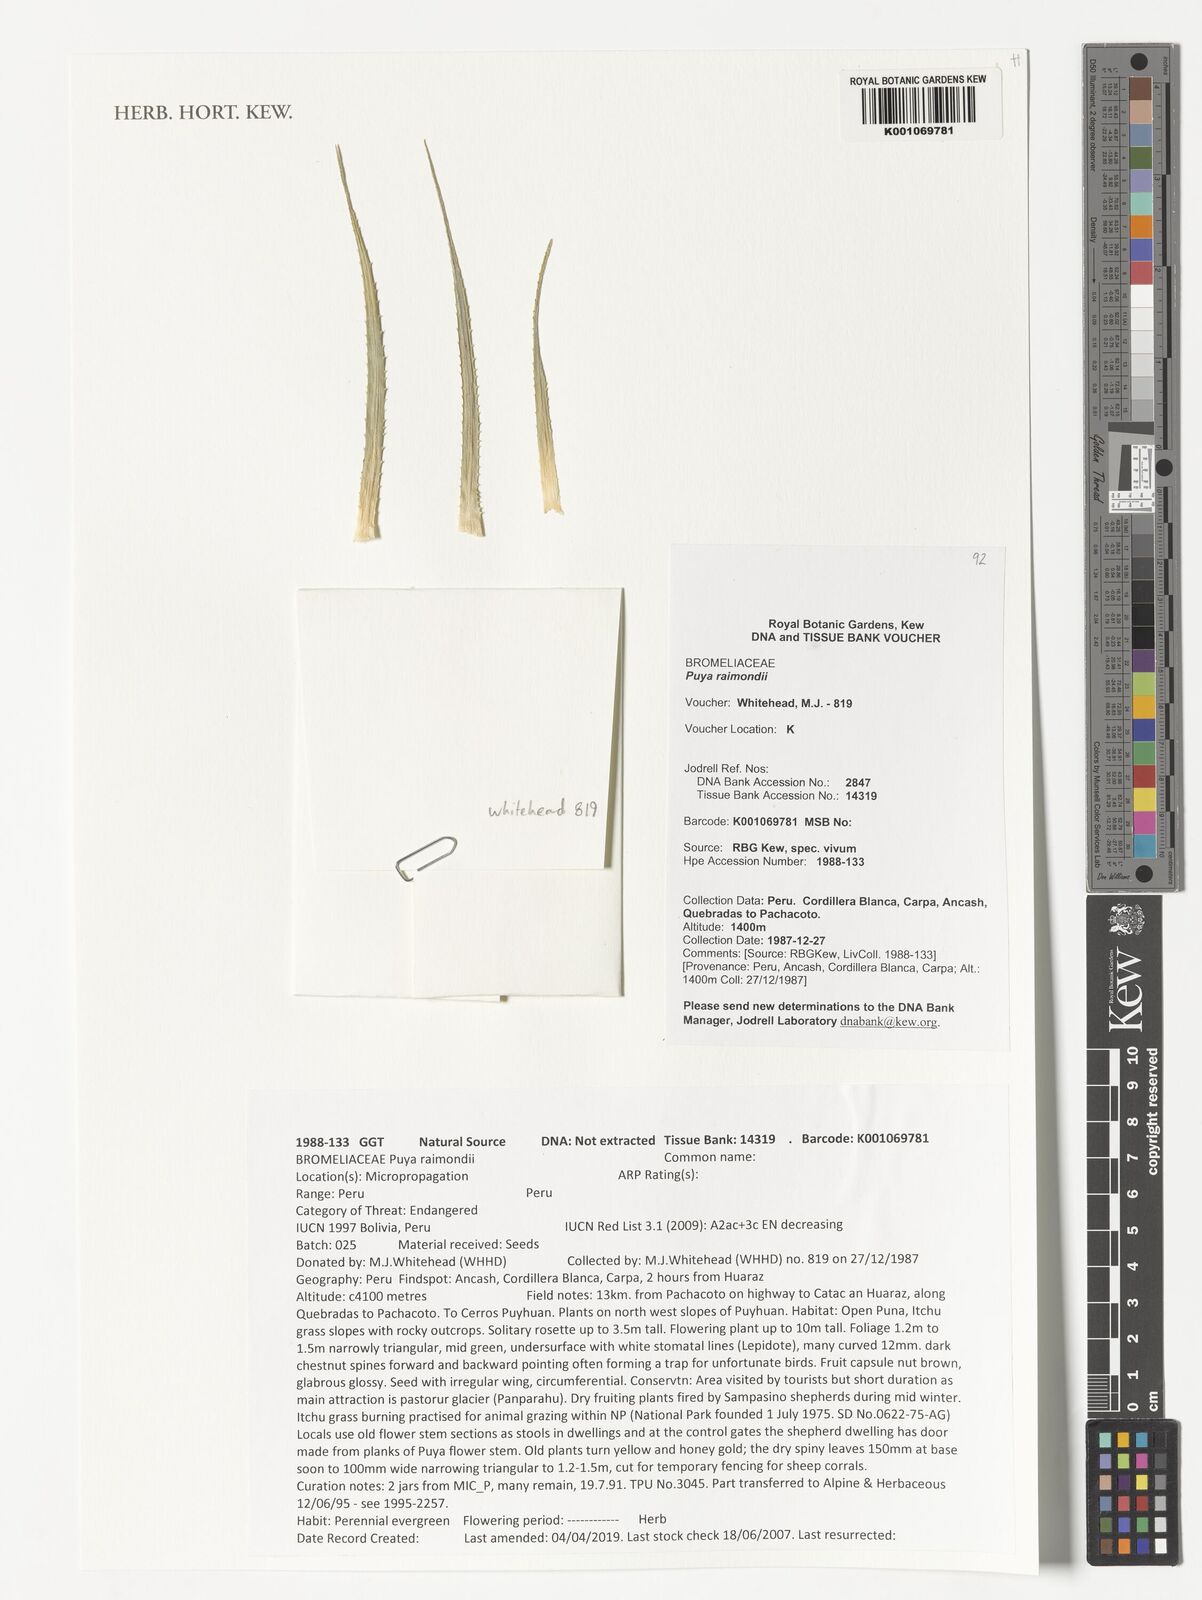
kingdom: Plantae
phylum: Tracheophyta
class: Liliopsida
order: Poales
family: Bromeliaceae
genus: Puya
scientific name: Puya raimondii
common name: Queen of the andes
